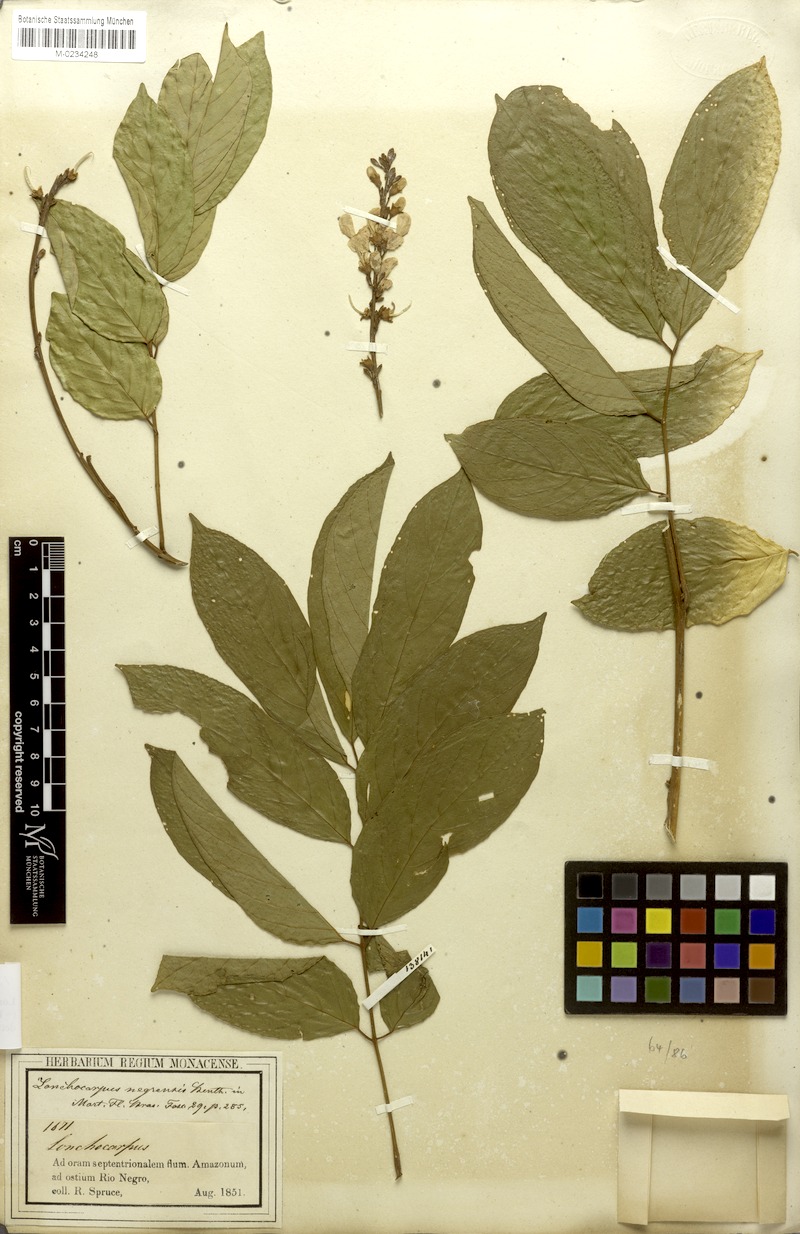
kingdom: Plantae
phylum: Tracheophyta
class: Magnoliopsida
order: Fabales
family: Fabaceae
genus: Deguelia
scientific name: Deguelia amazonica
